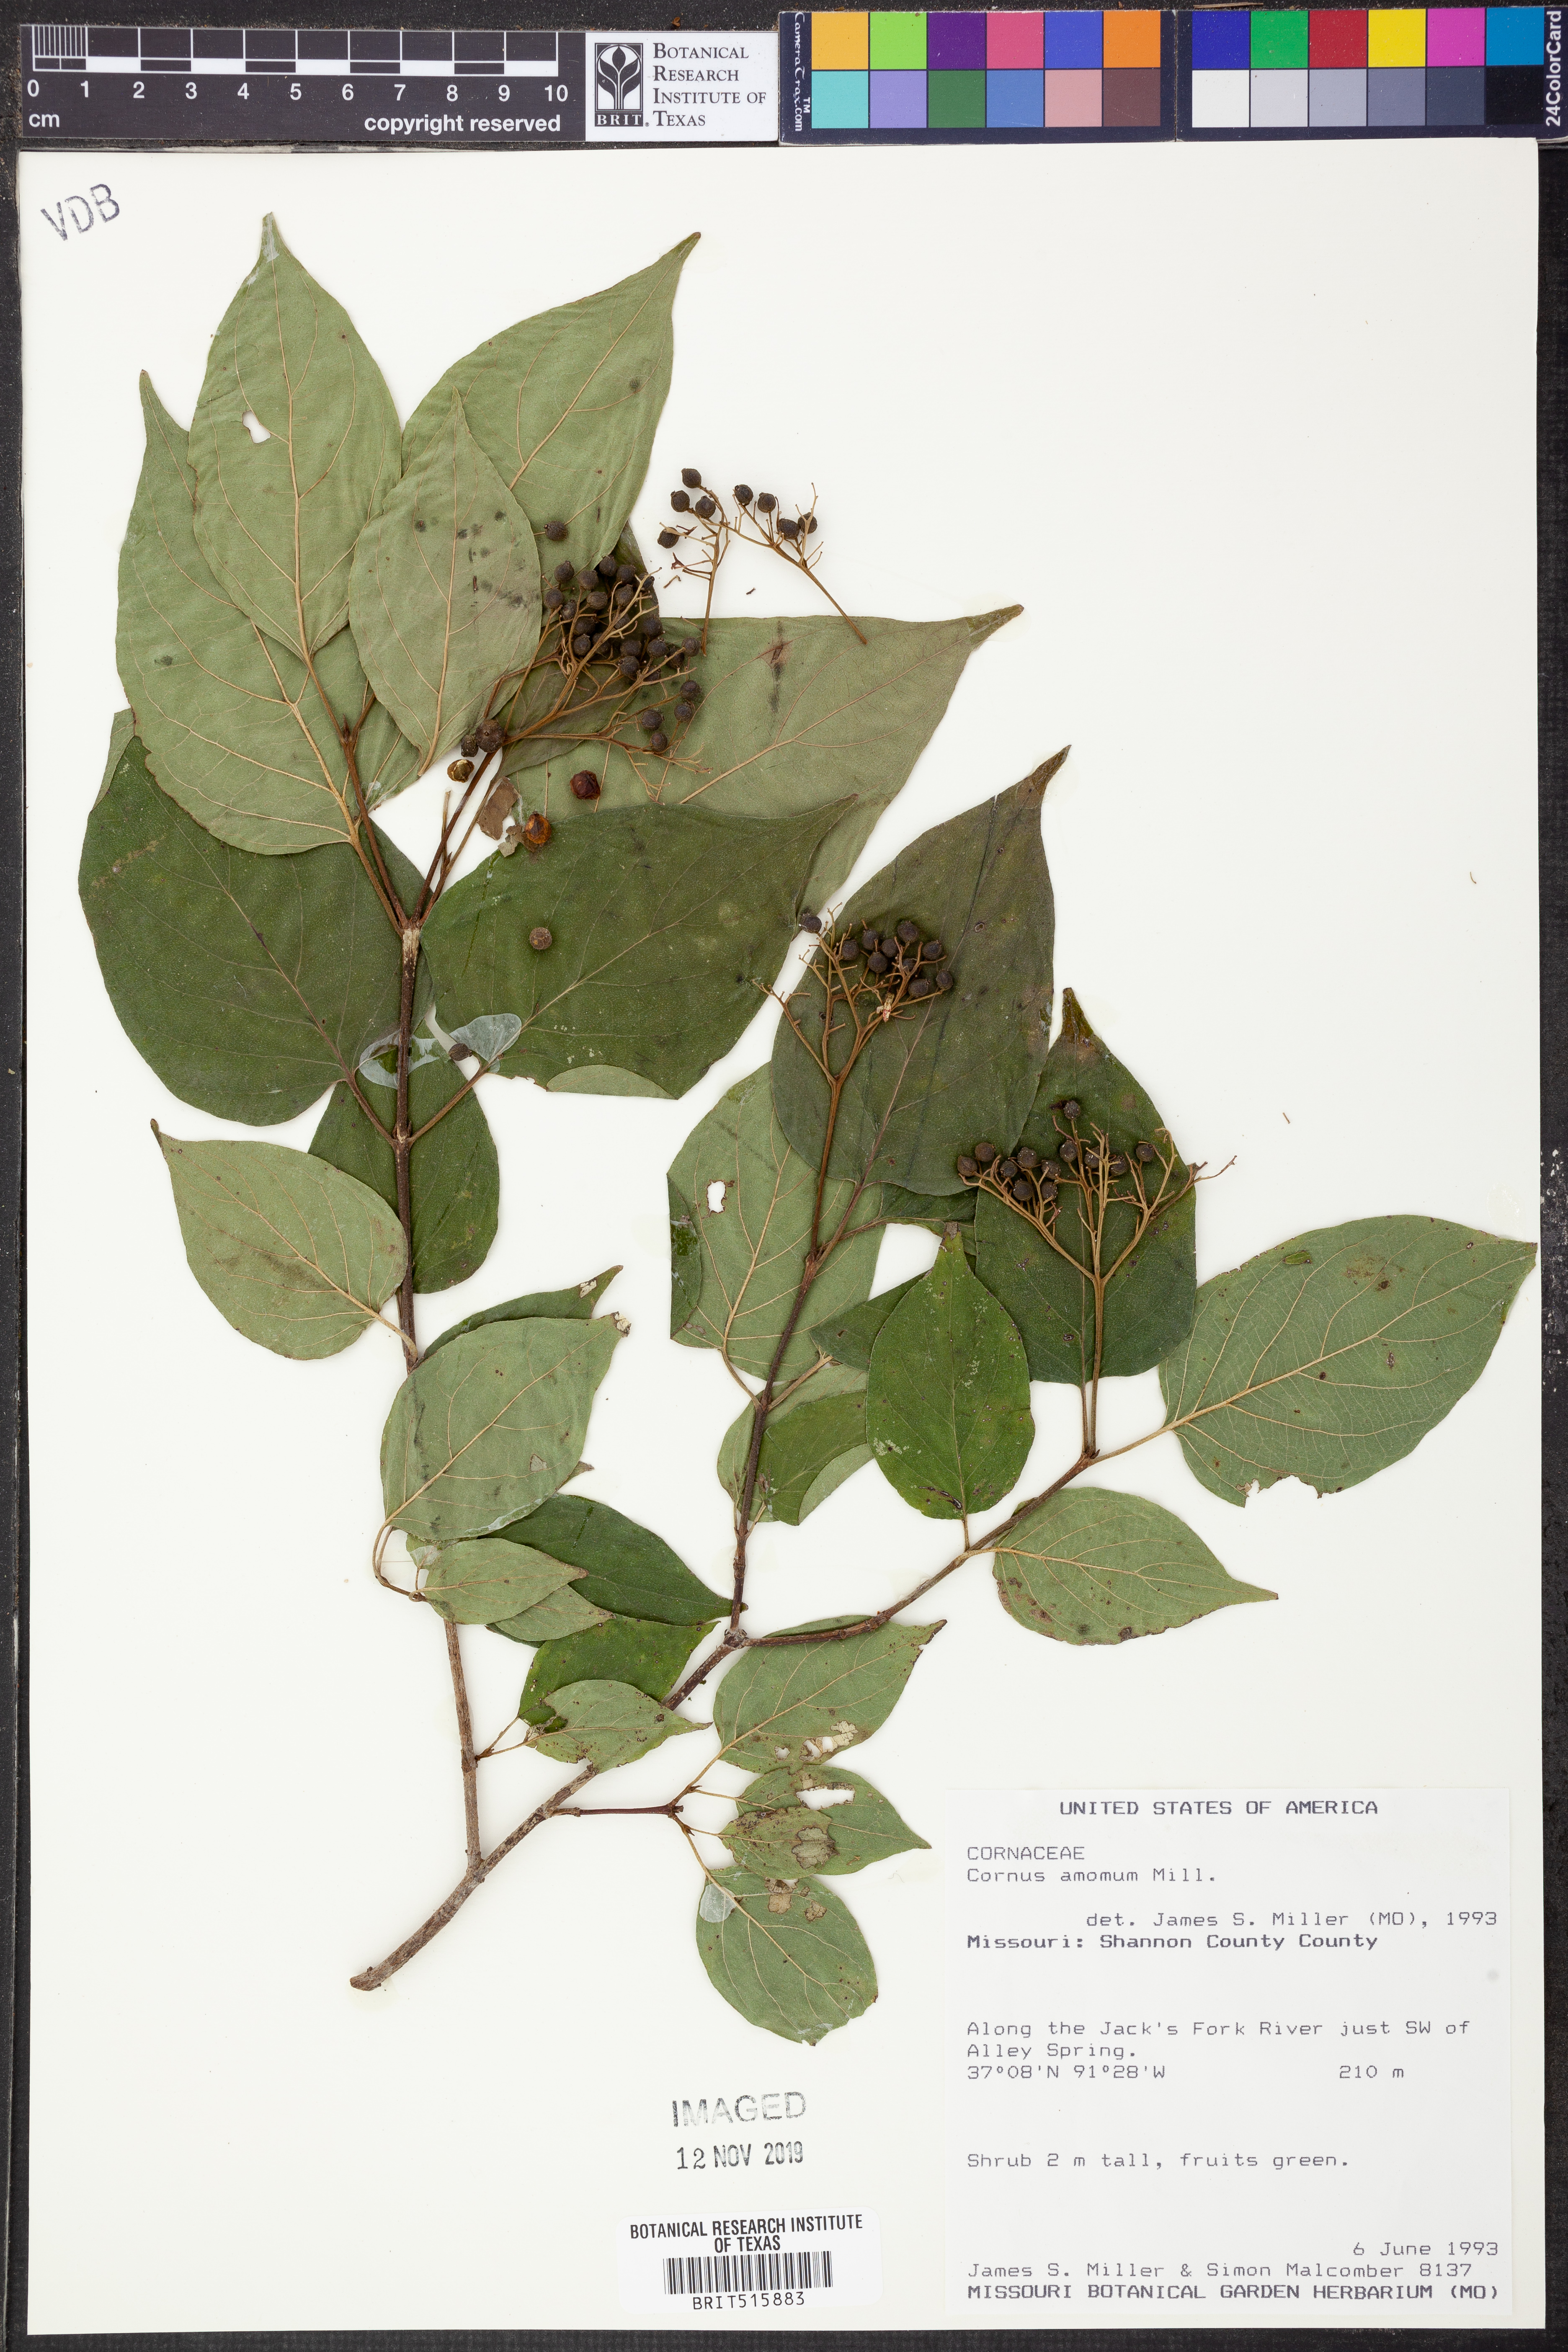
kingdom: Plantae
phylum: Tracheophyta
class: Magnoliopsida
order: Cornales
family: Cornaceae
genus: Cornus
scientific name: Cornus amomum
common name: Silky dogwood
